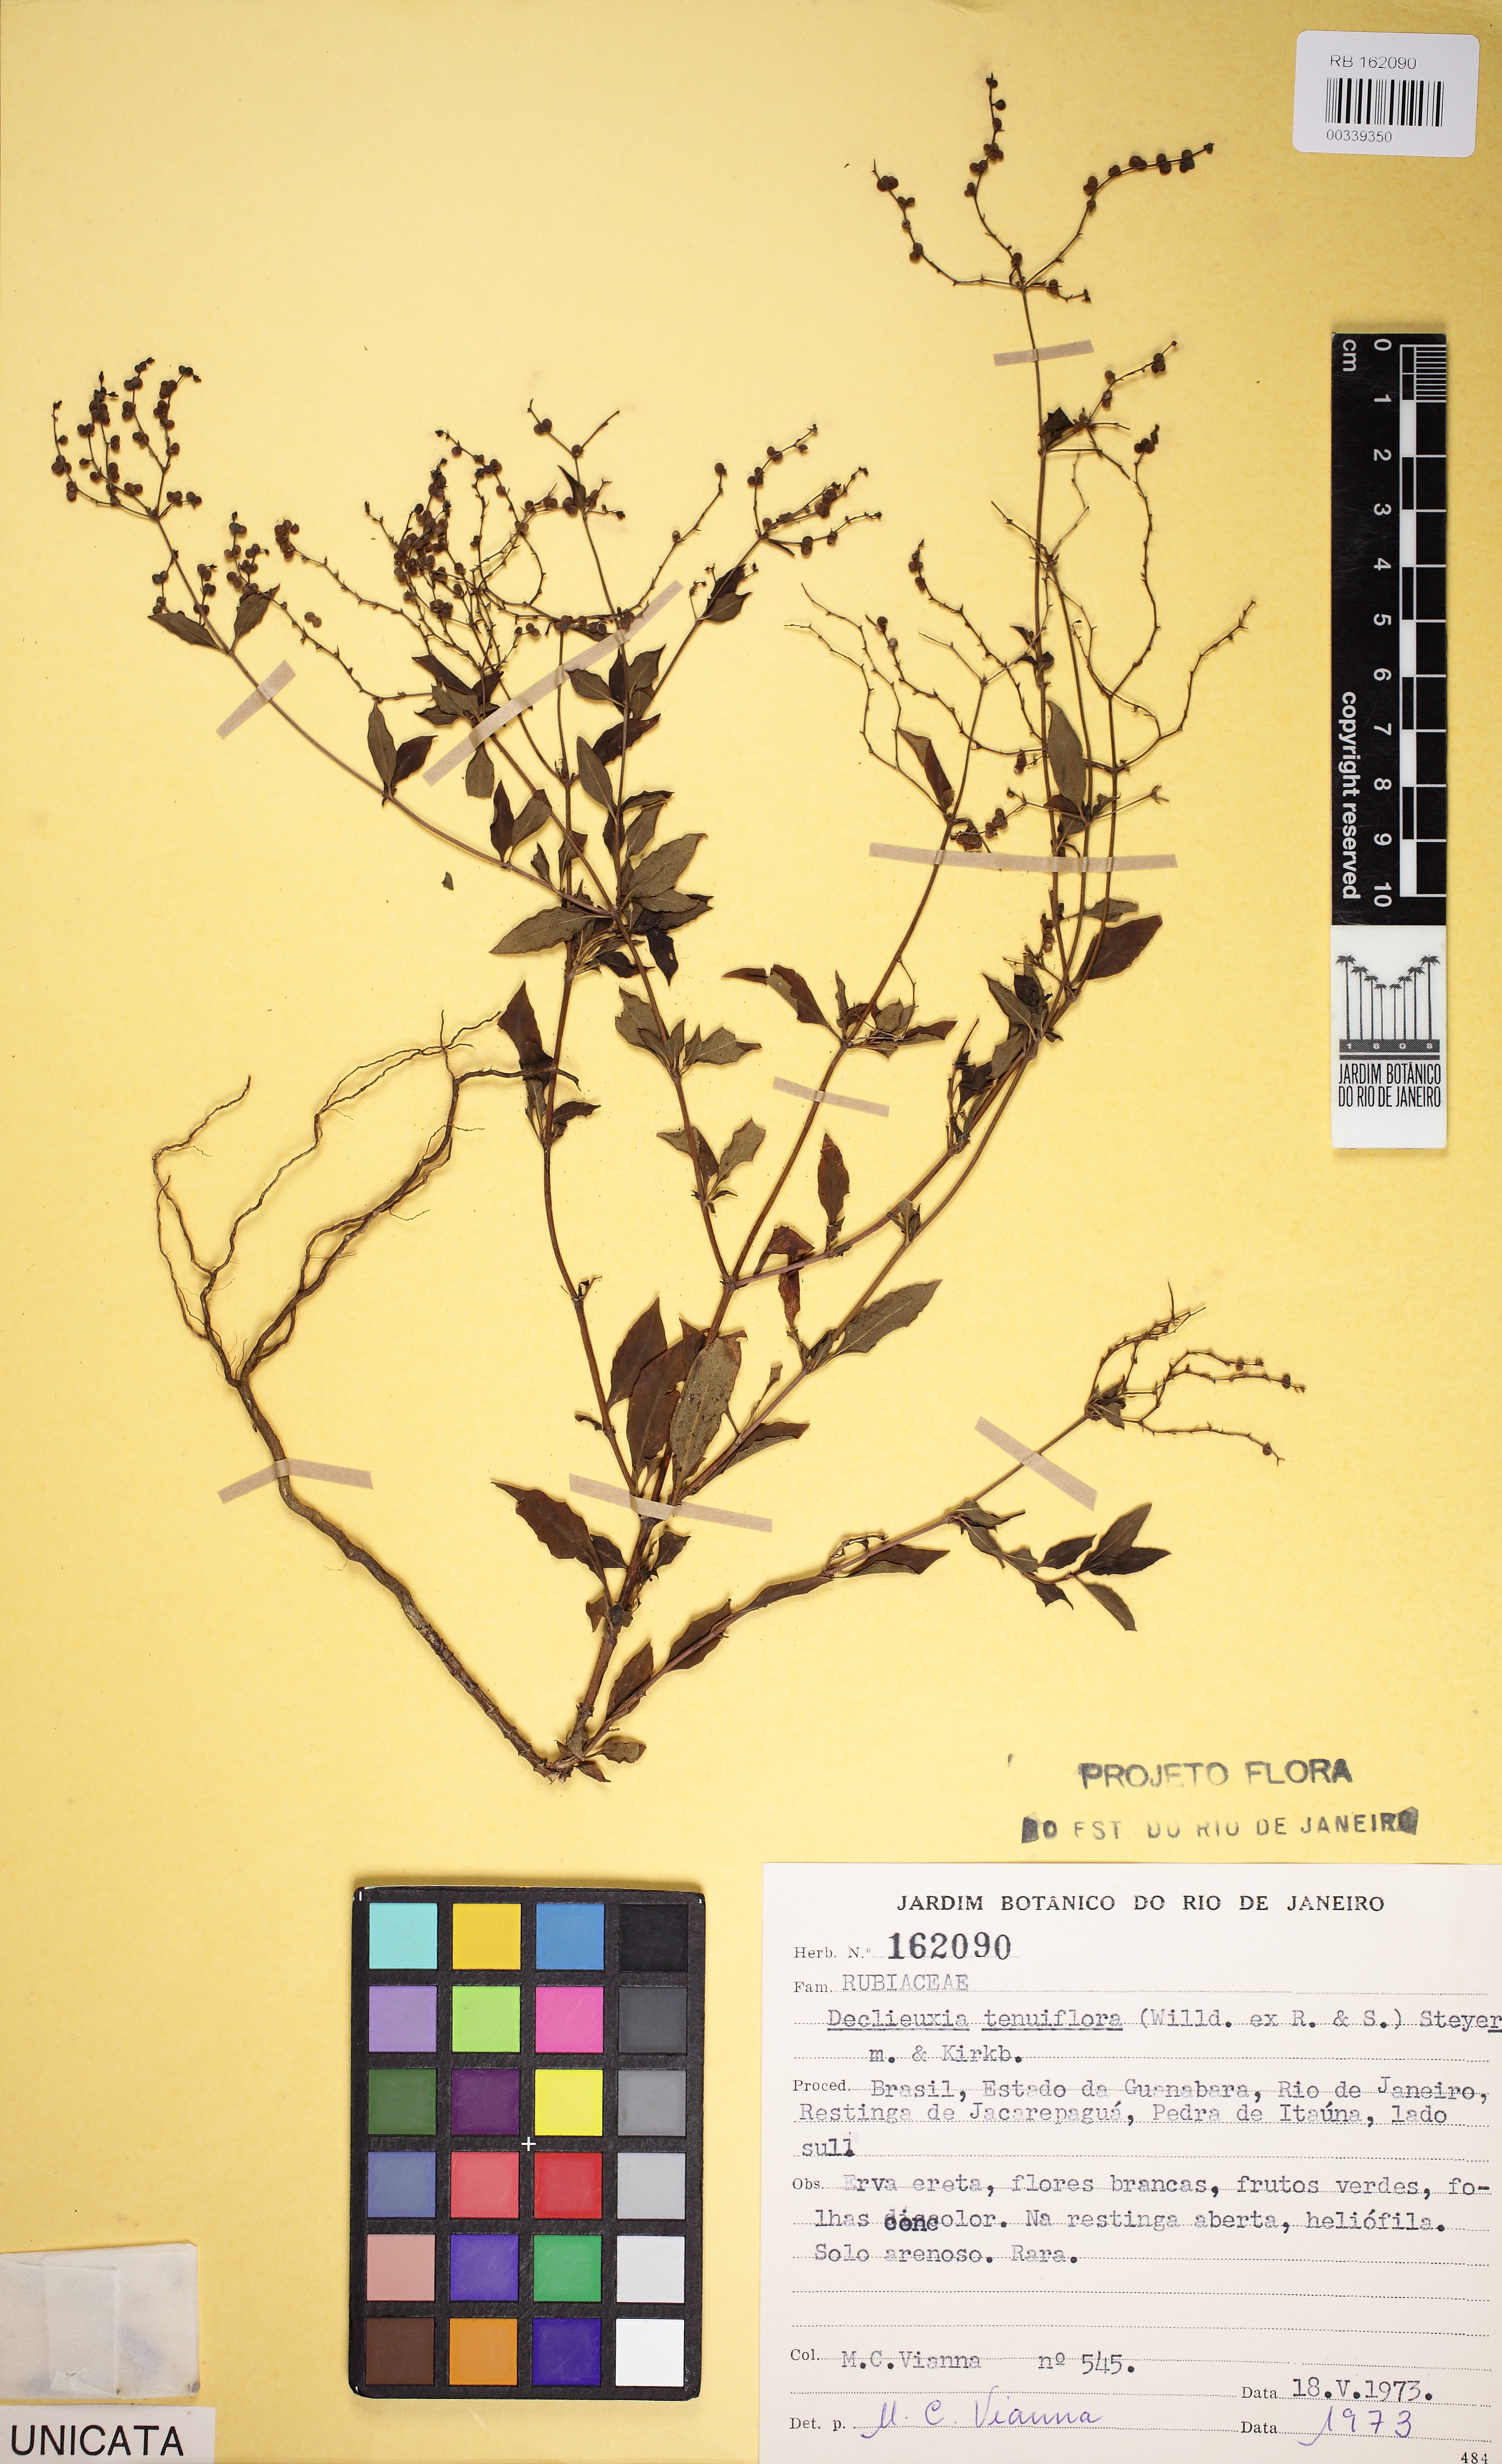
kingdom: Plantae
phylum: Tracheophyta
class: Magnoliopsida
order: Gentianales
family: Rubiaceae
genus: Declieuxia
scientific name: Declieuxia tenuiflora
